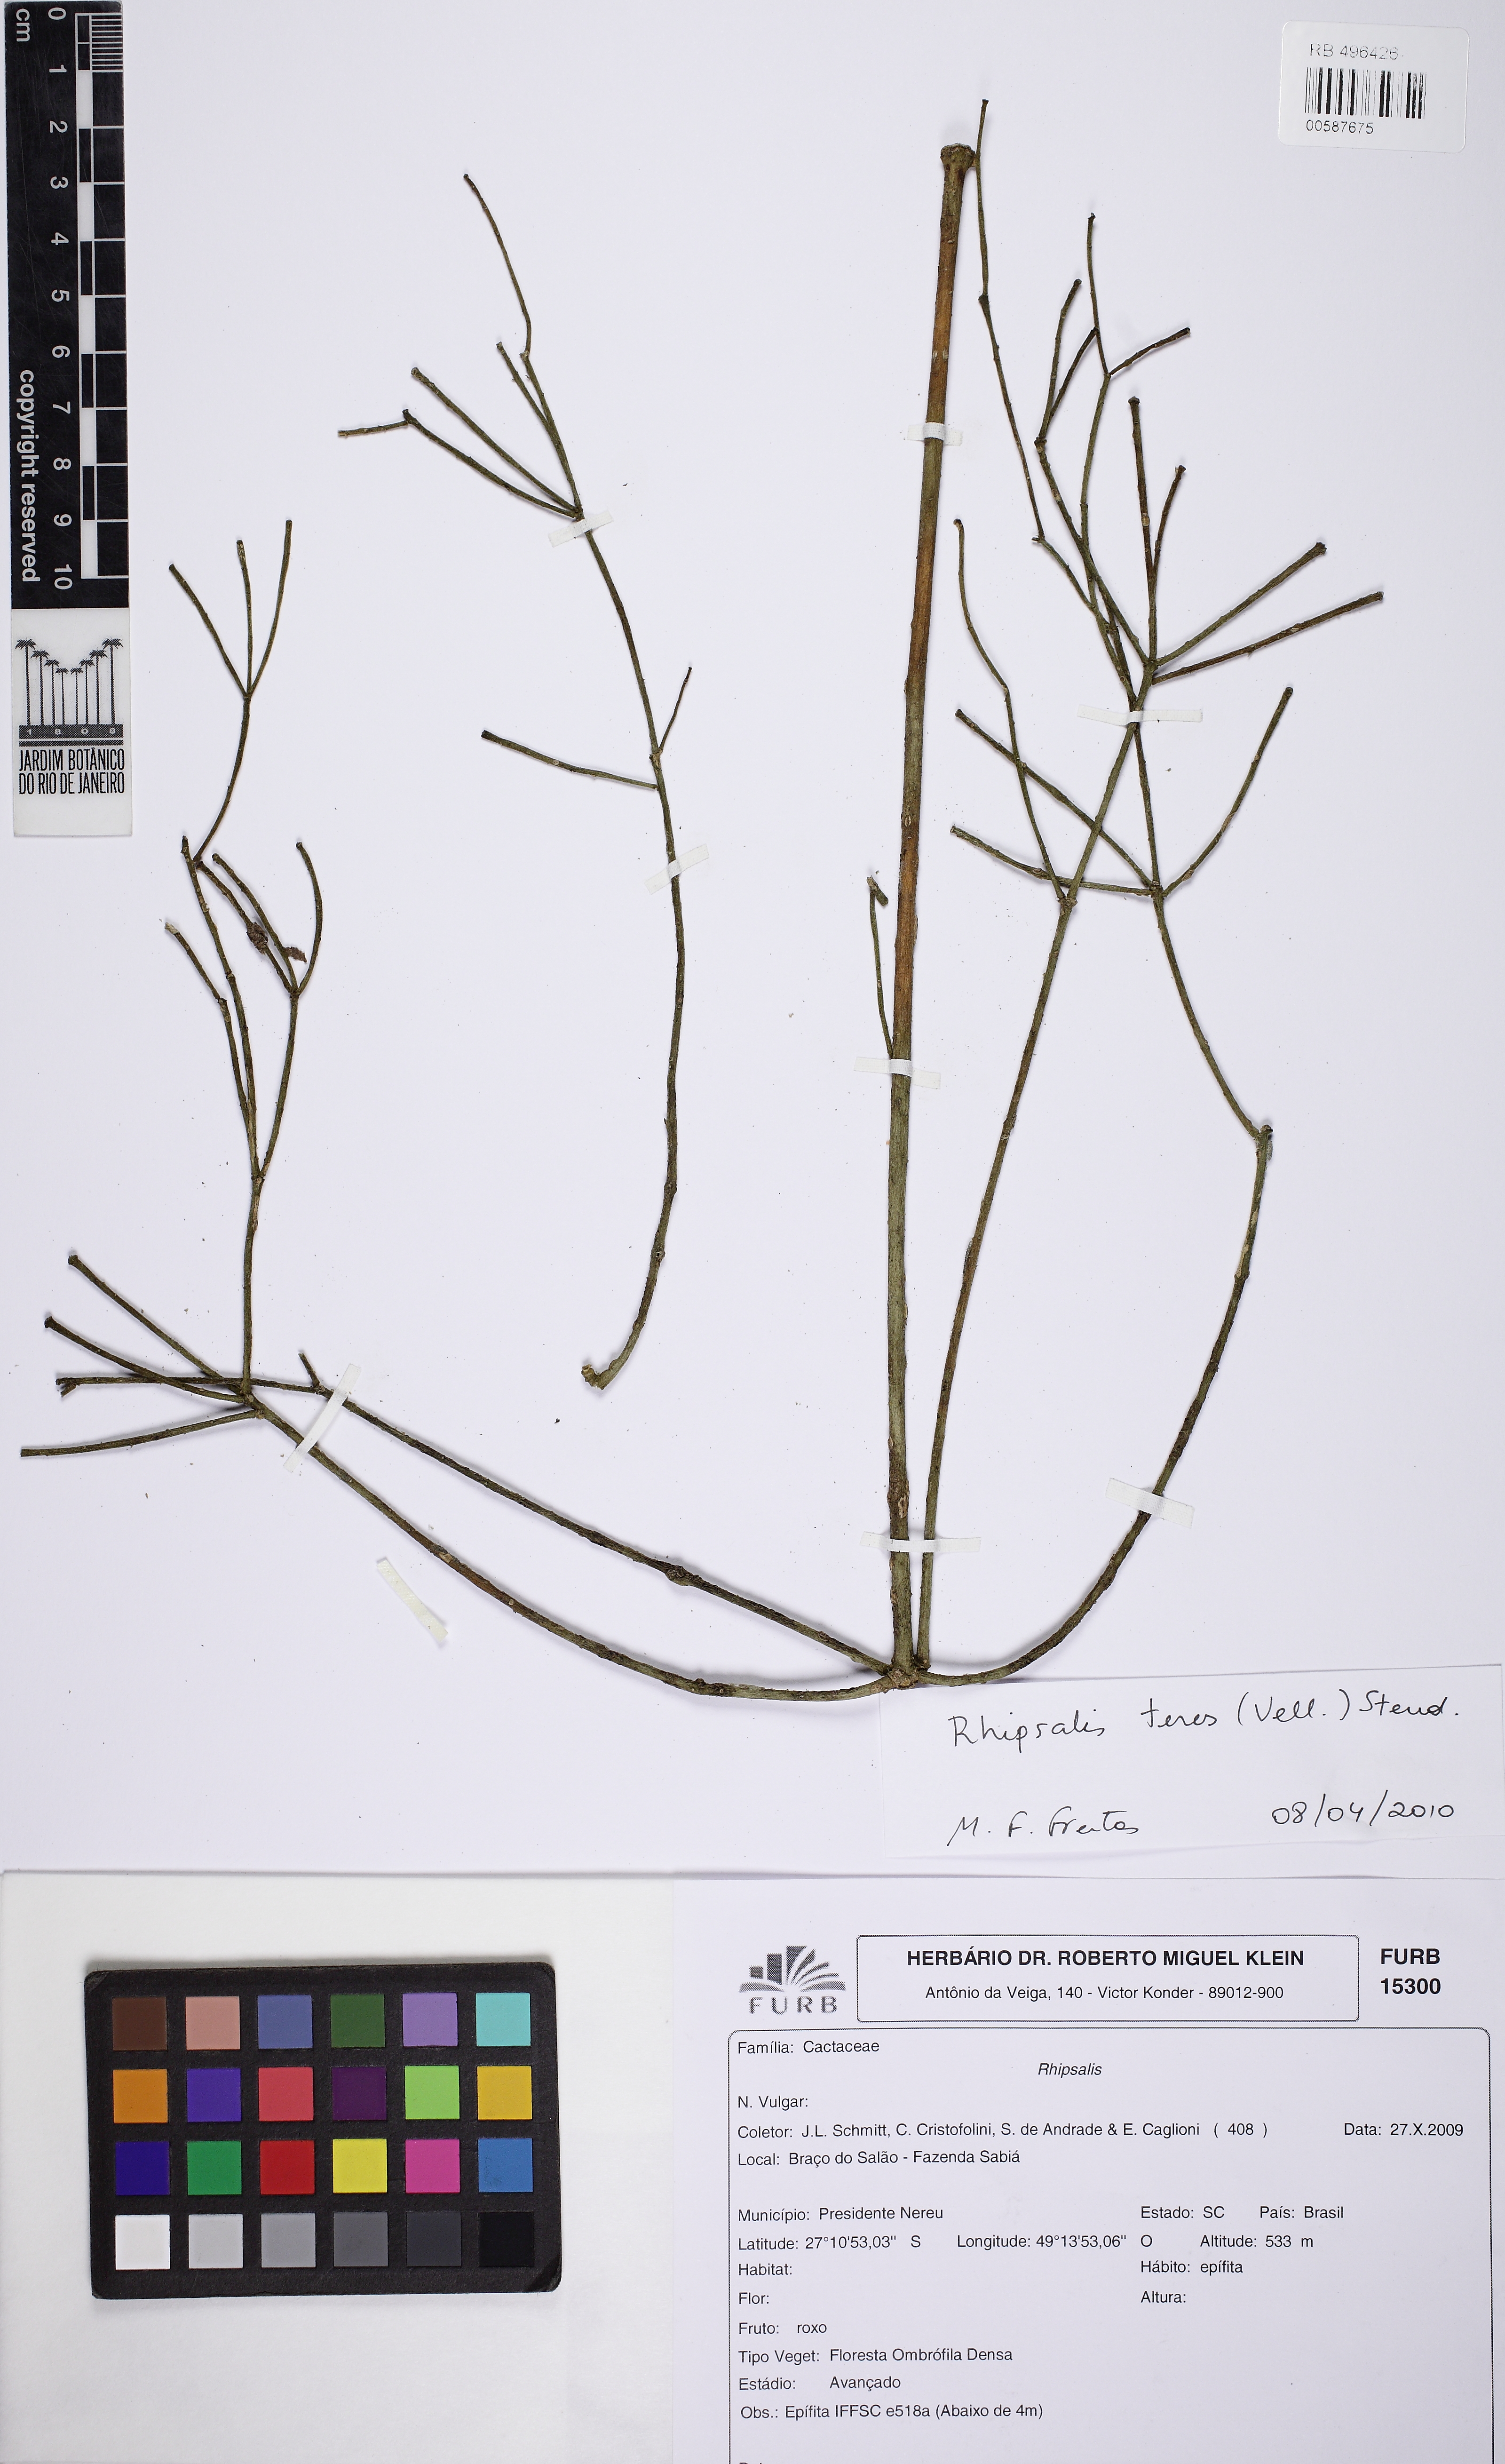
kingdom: Plantae
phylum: Tracheophyta
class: Magnoliopsida
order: Caryophyllales
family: Cactaceae
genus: Rhipsalis
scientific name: Rhipsalis teres
